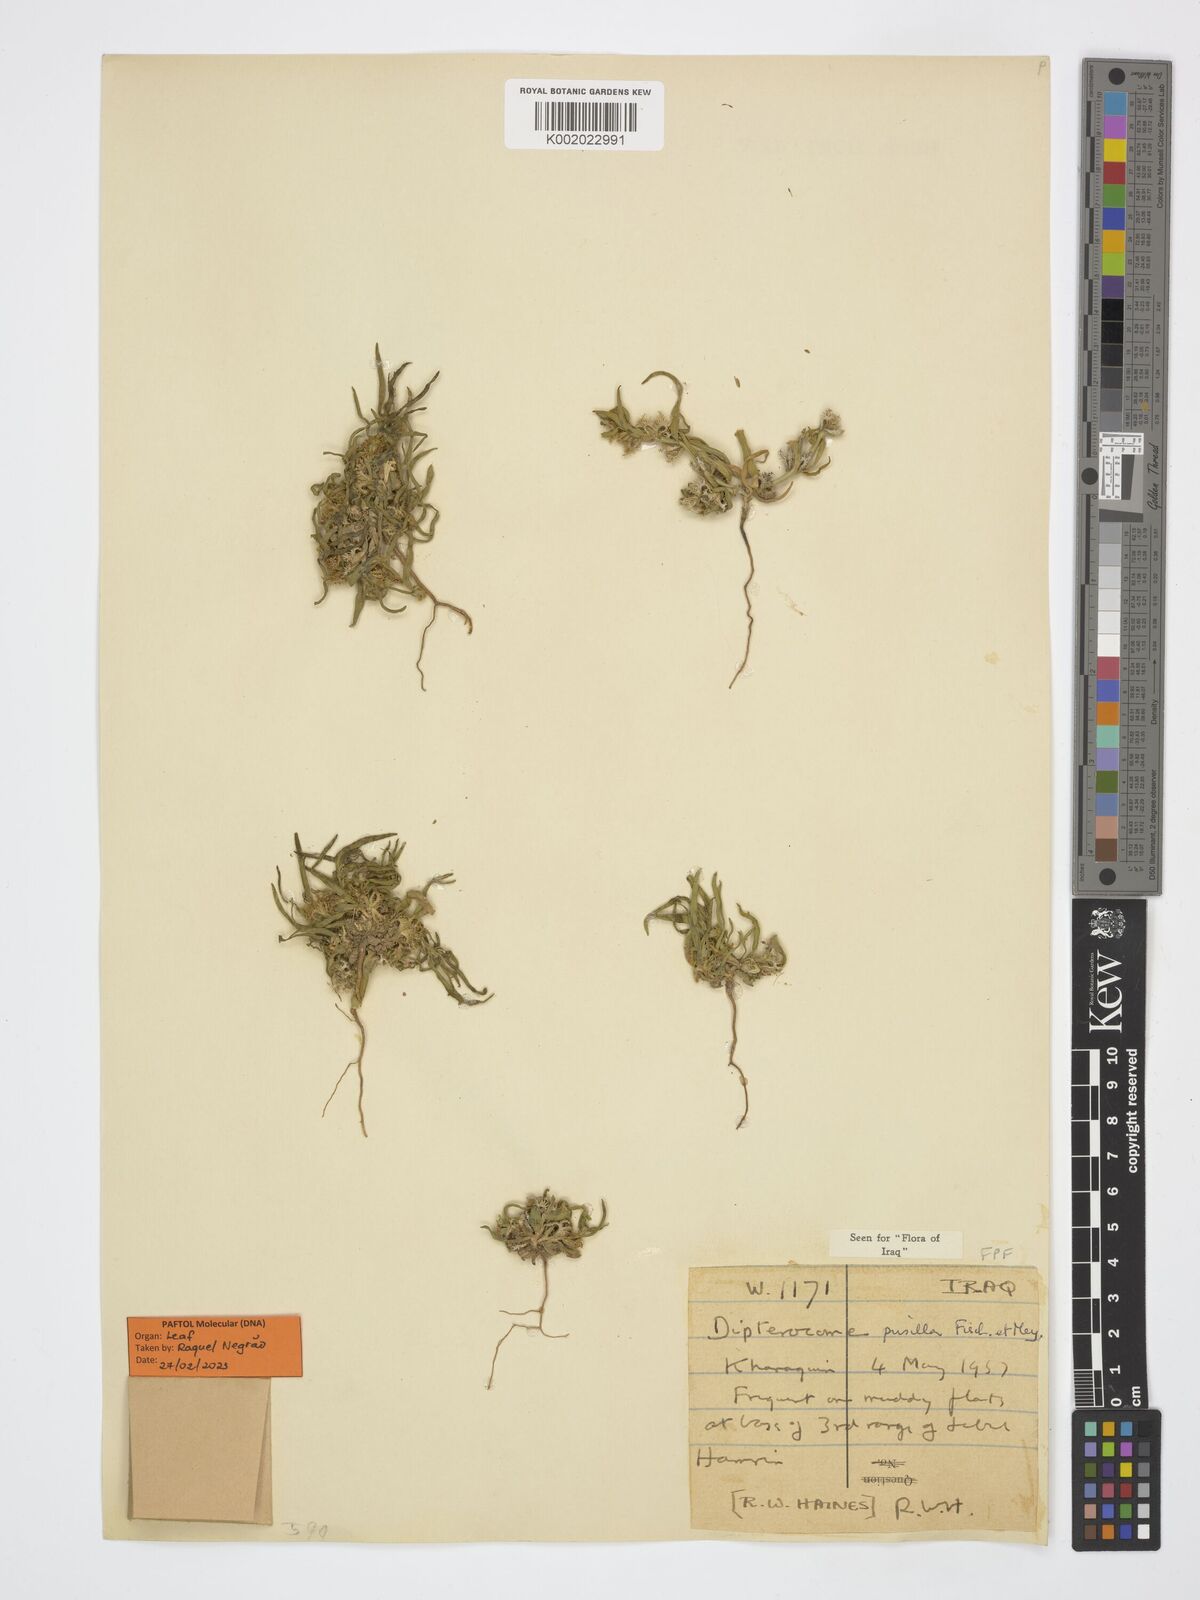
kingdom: Plantae
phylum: Tracheophyta
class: Magnoliopsida
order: Asterales
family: Asteraceae
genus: Dipterocome
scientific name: Dipterocome pusilla
